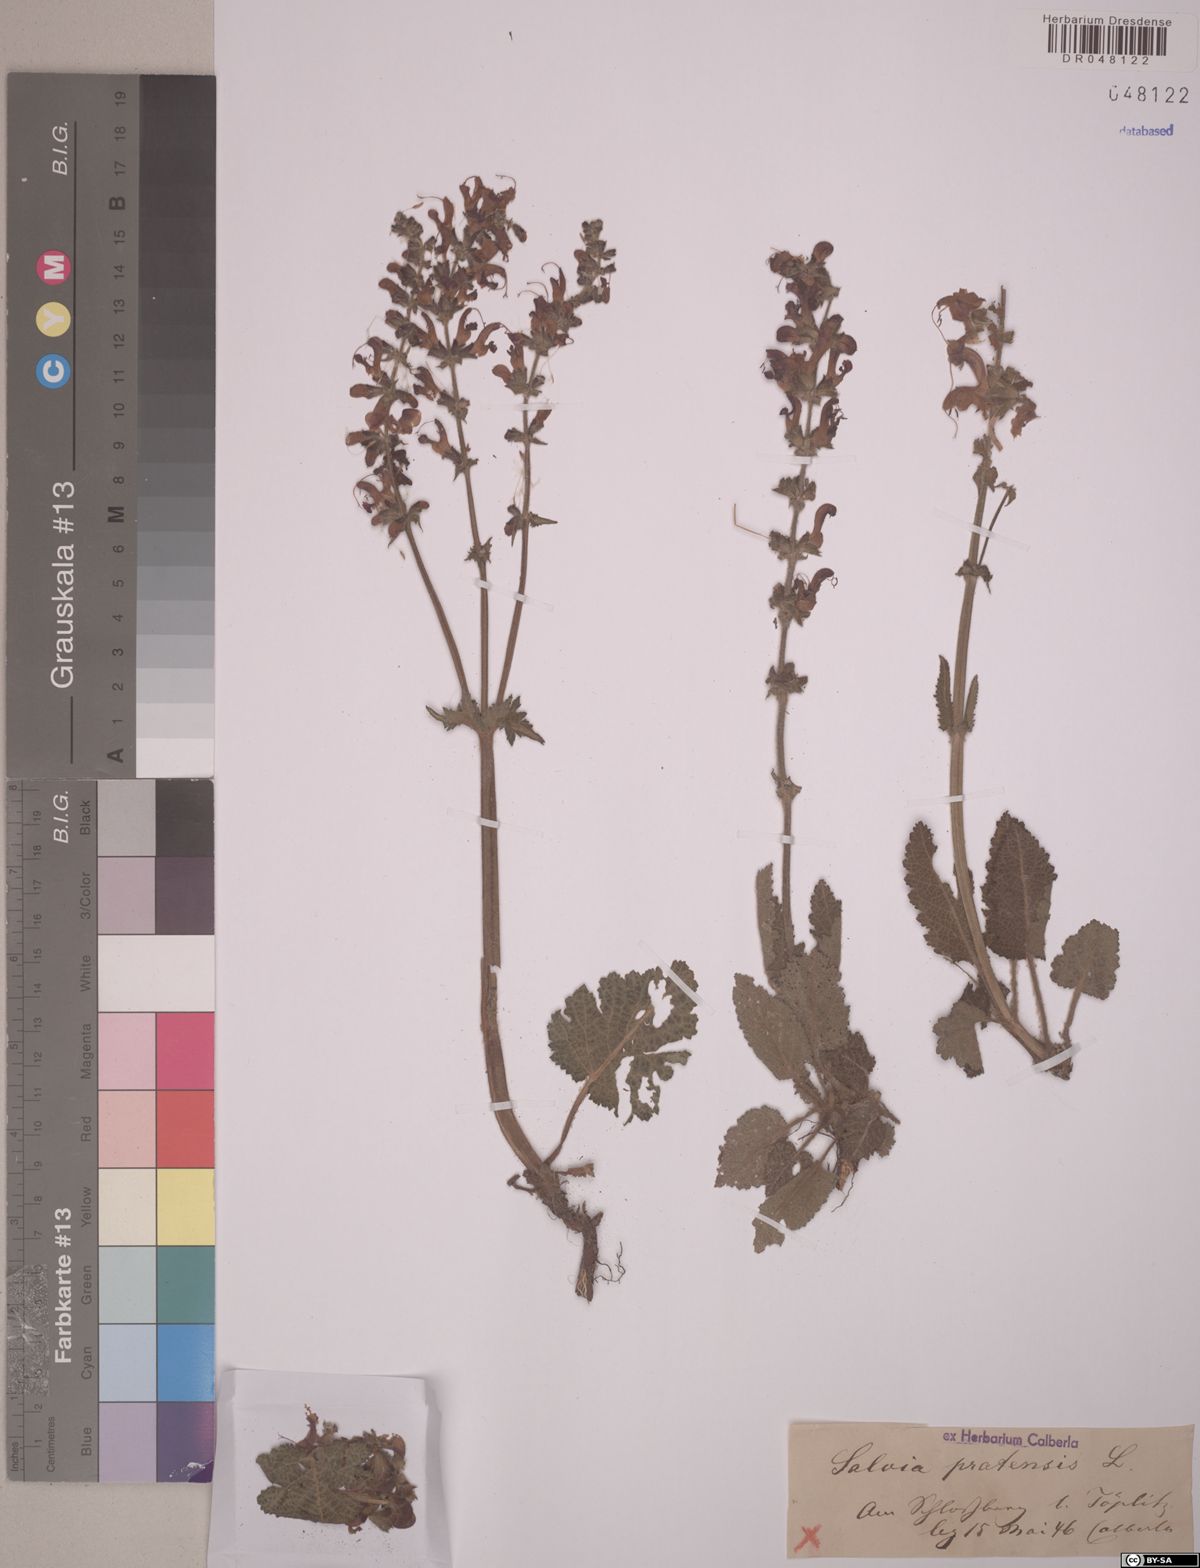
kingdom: Plantae
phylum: Tracheophyta
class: Magnoliopsida
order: Lamiales
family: Lamiaceae
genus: Salvia
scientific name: Salvia pratensis
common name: Meadow sage
